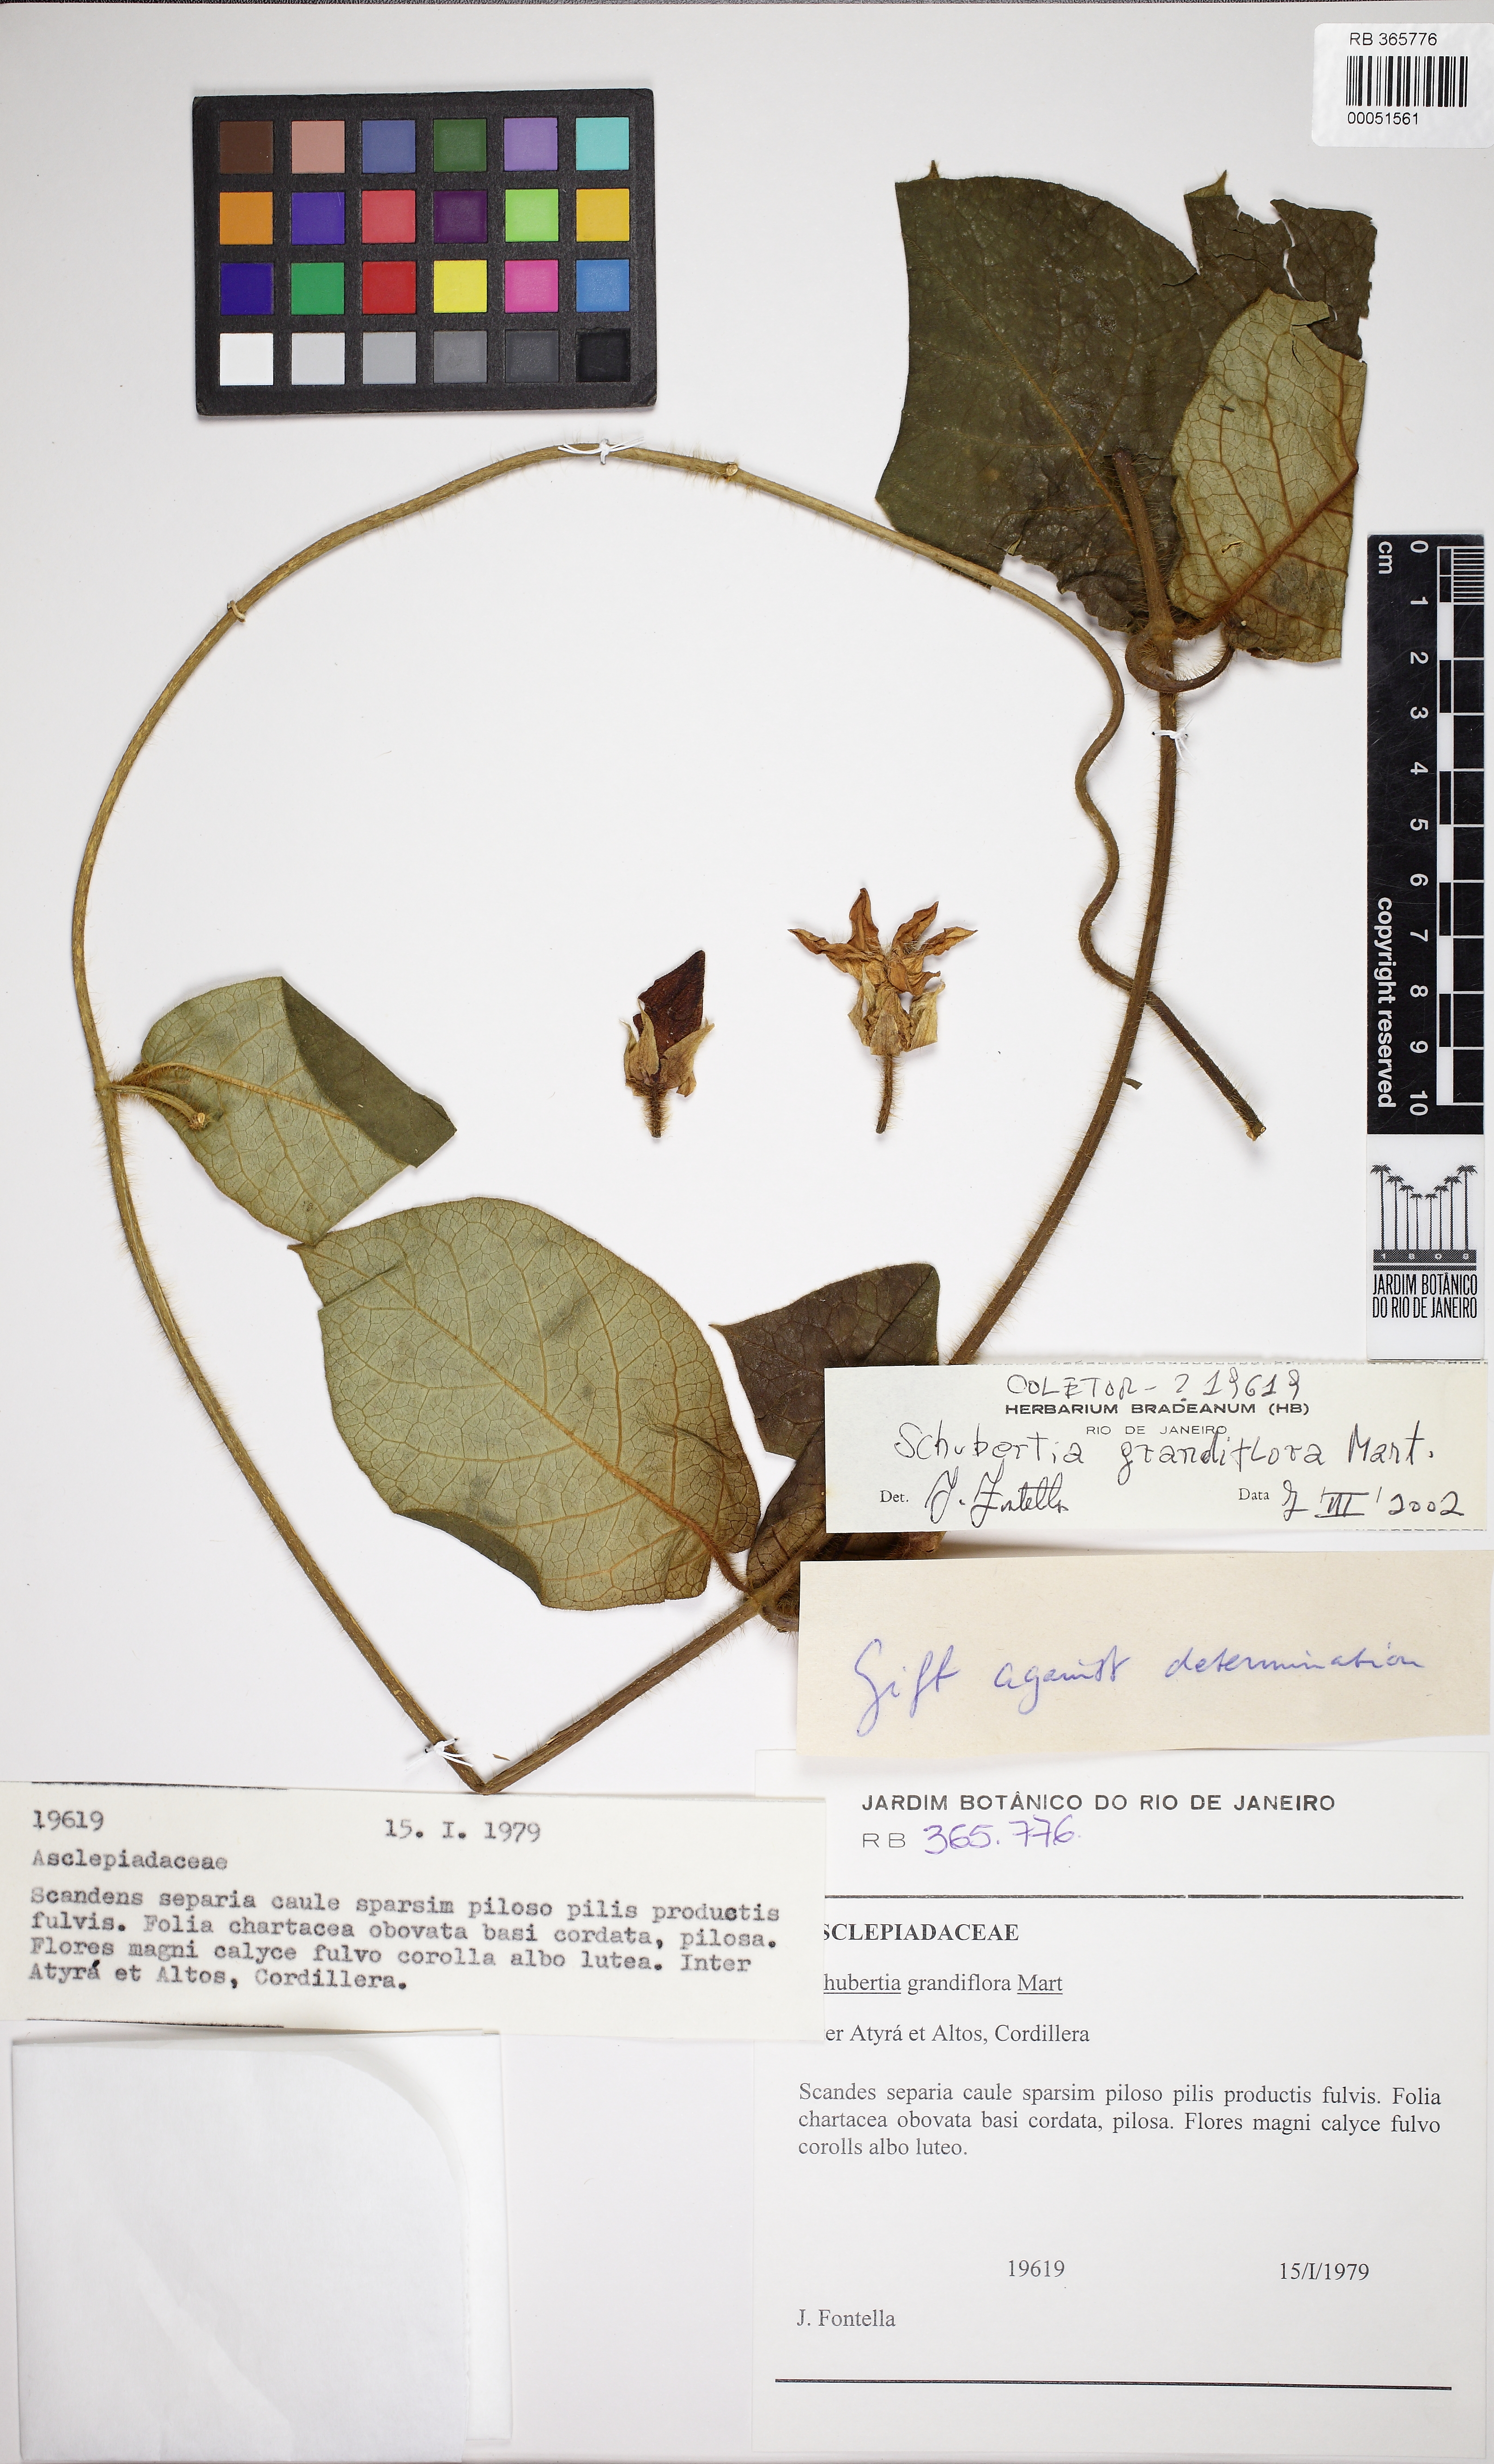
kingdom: Plantae
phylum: Tracheophyta
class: Magnoliopsida
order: Gentianales
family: Apocynaceae
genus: Macroscepis
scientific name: Macroscepis grandiflora
